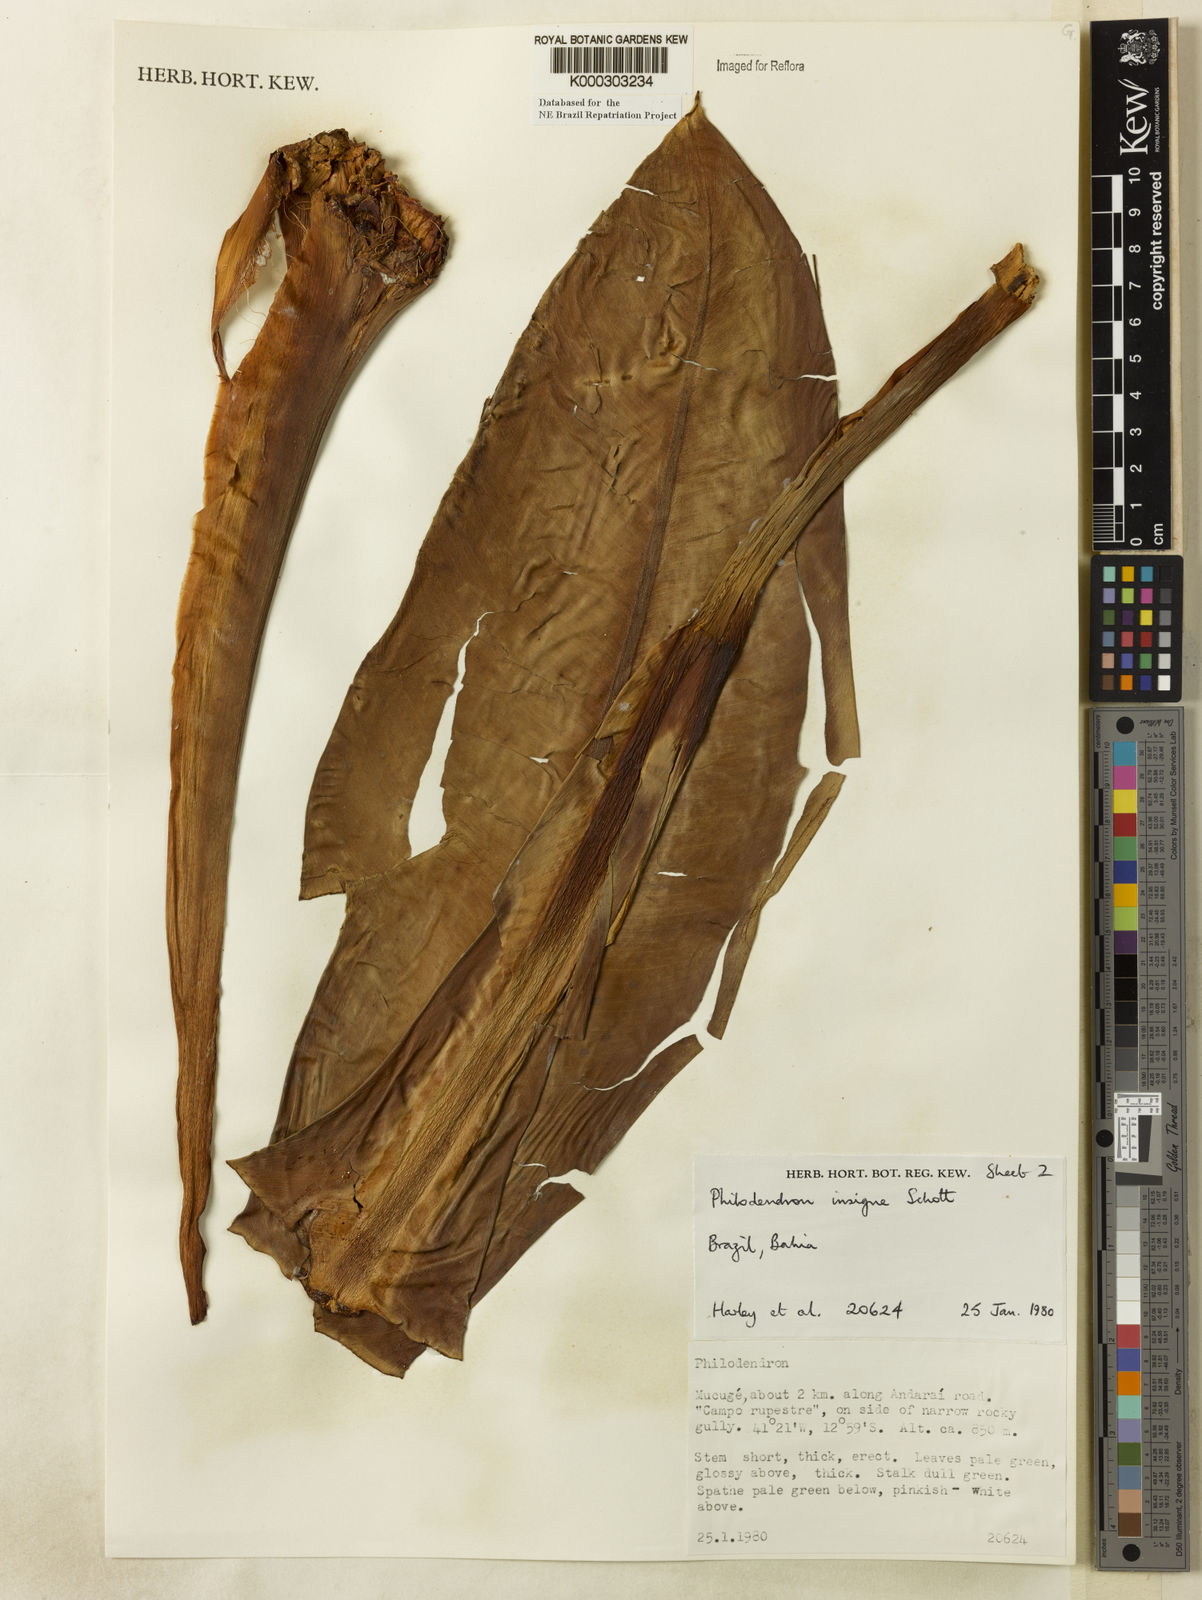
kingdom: Plantae
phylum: Tracheophyta
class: Liliopsida
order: Alismatales
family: Araceae
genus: Philodendron
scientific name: Philodendron insigne
